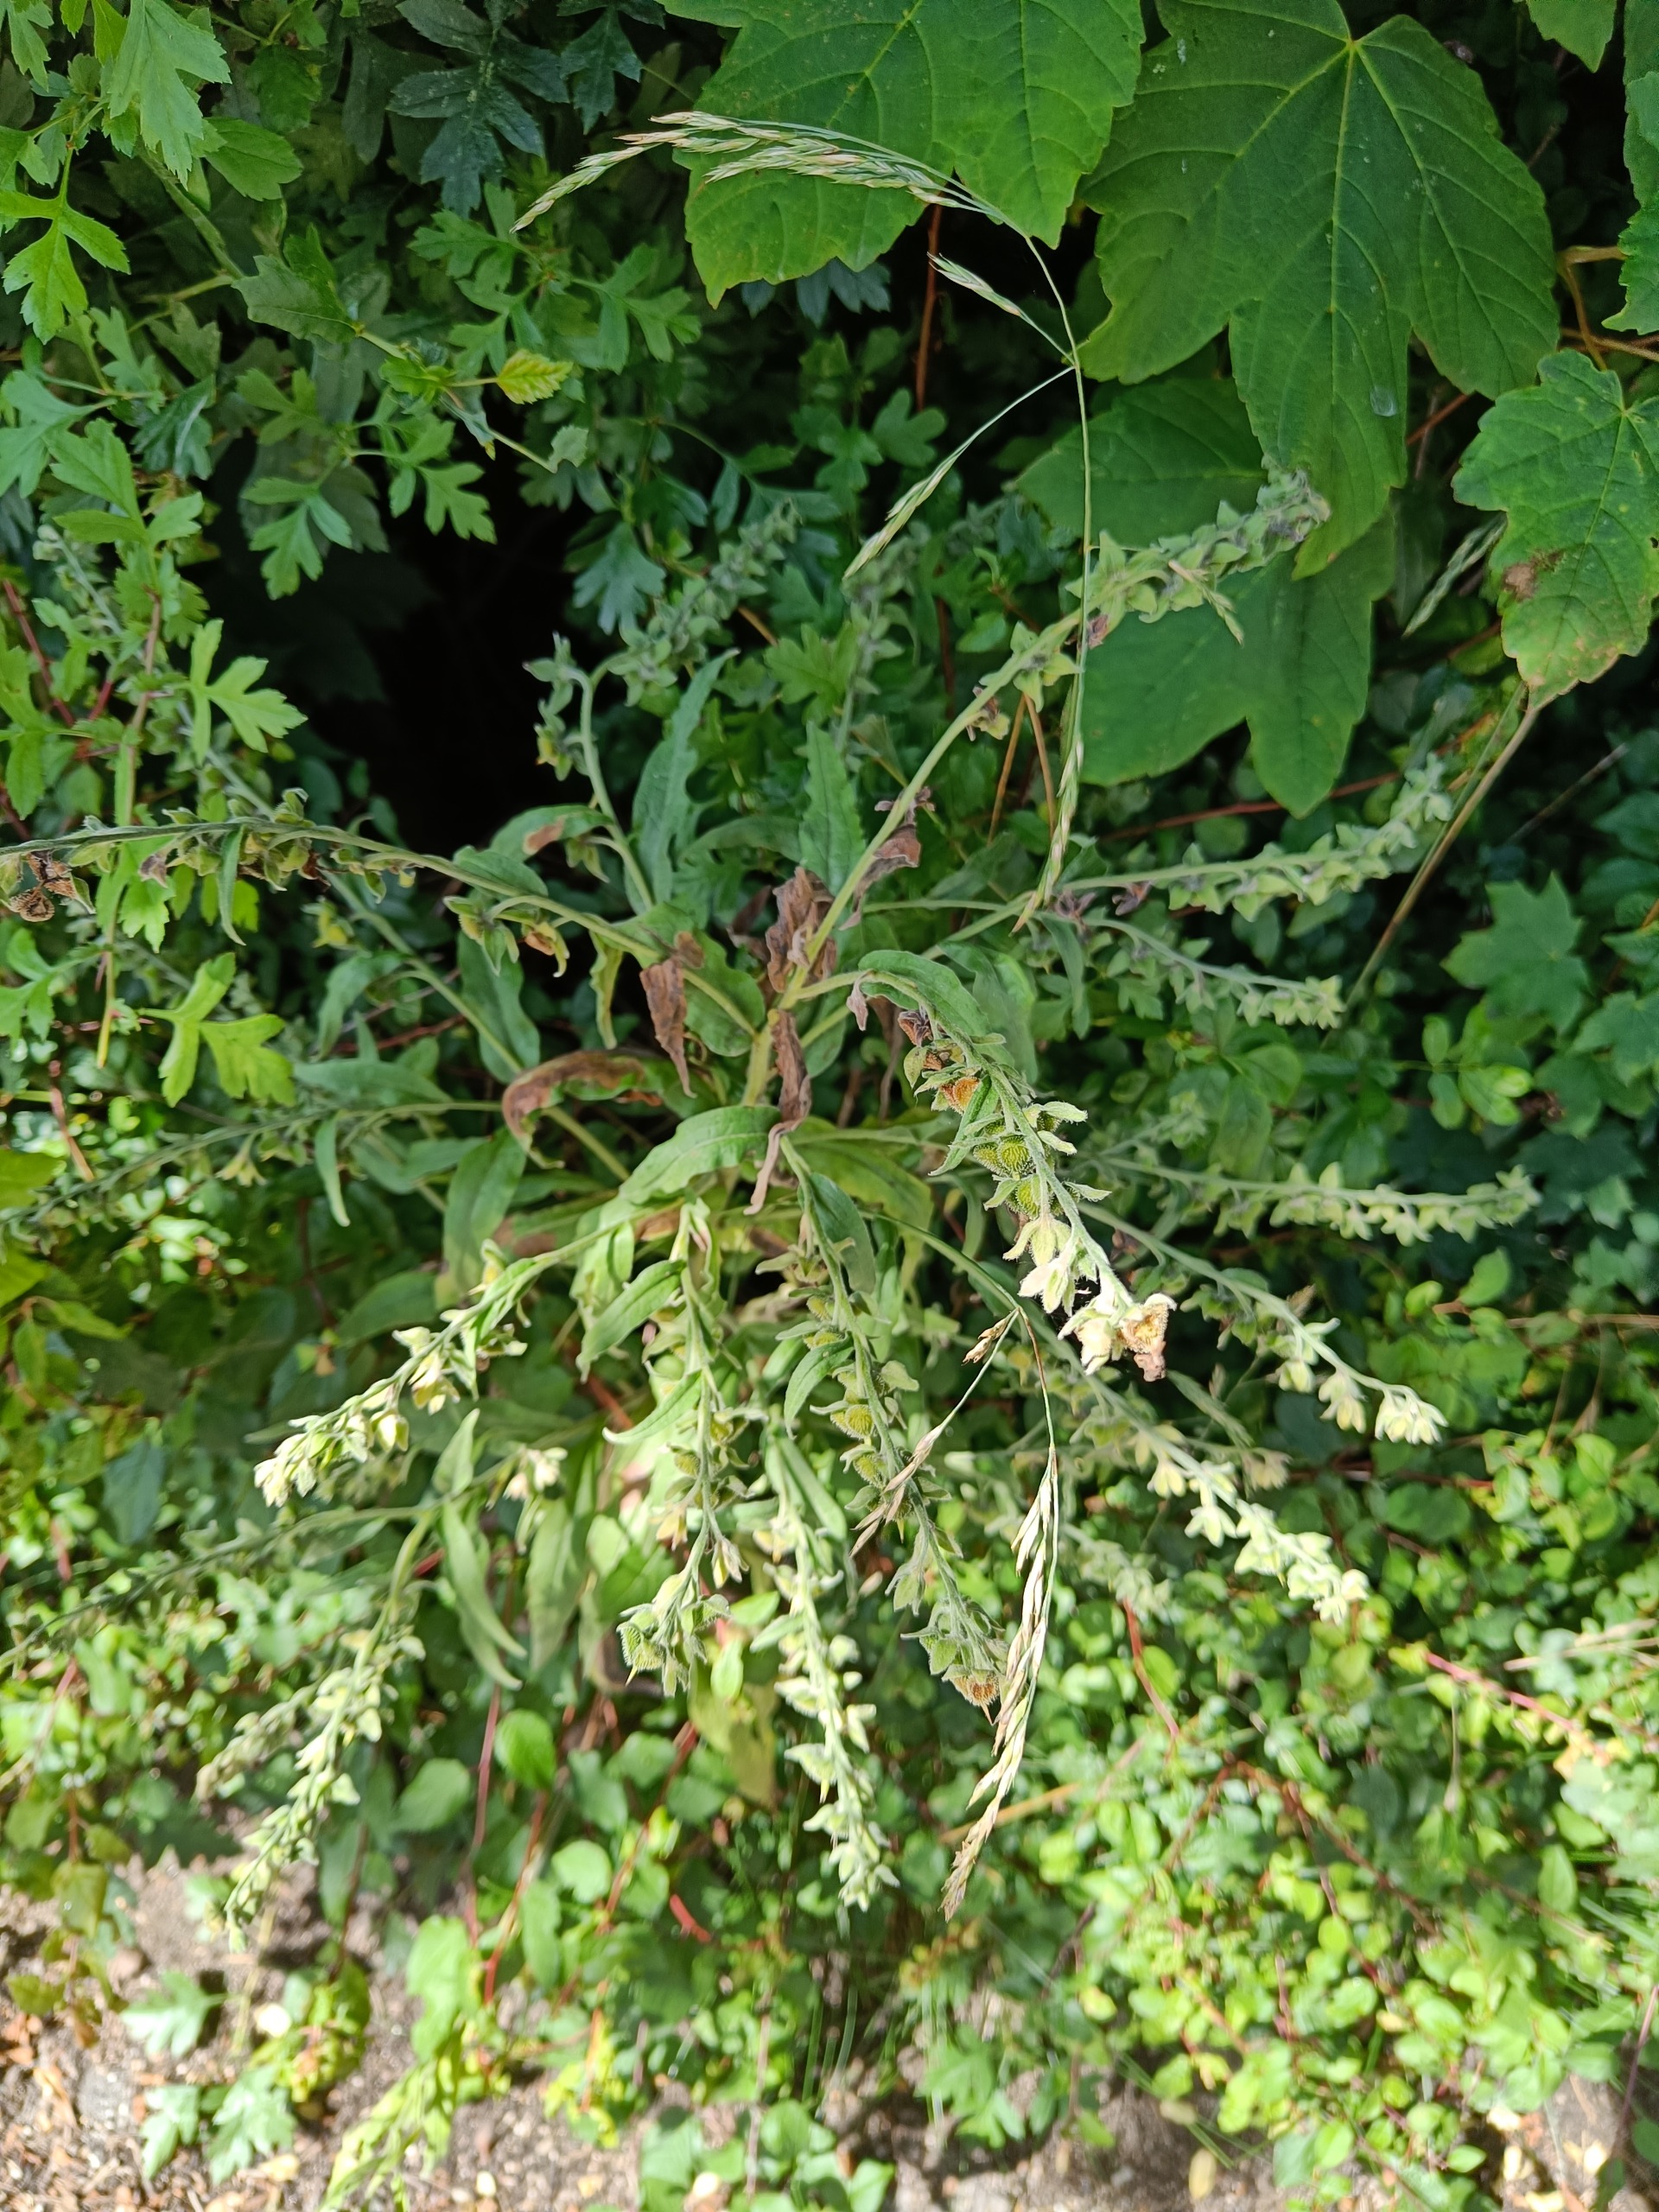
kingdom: Plantae
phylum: Tracheophyta
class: Magnoliopsida
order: Boraginales
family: Boraginaceae
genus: Cynoglossum
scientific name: Cynoglossum officinale
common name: Hundetunge
